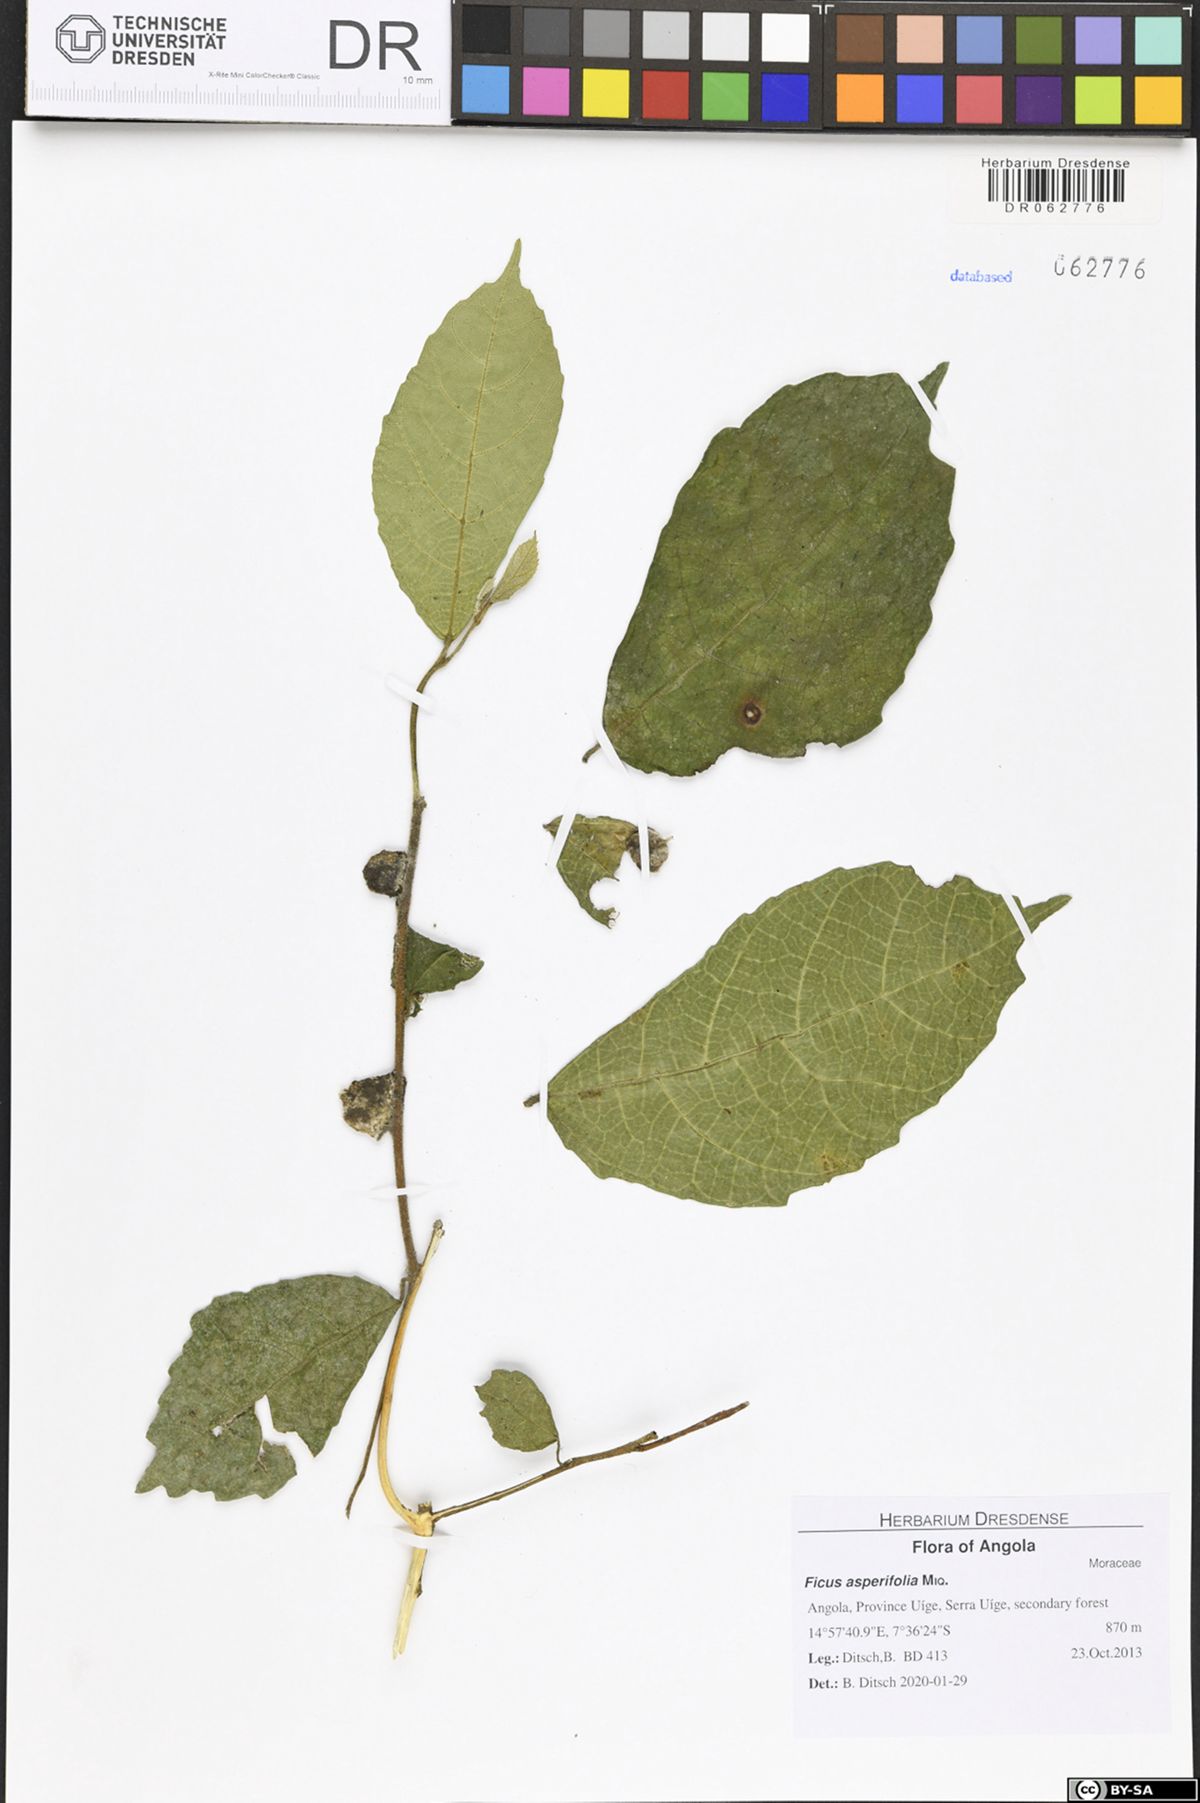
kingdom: Plantae
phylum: Tracheophyta
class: Magnoliopsida
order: Rosales
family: Moraceae
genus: Ficus
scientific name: Ficus asperifolia
